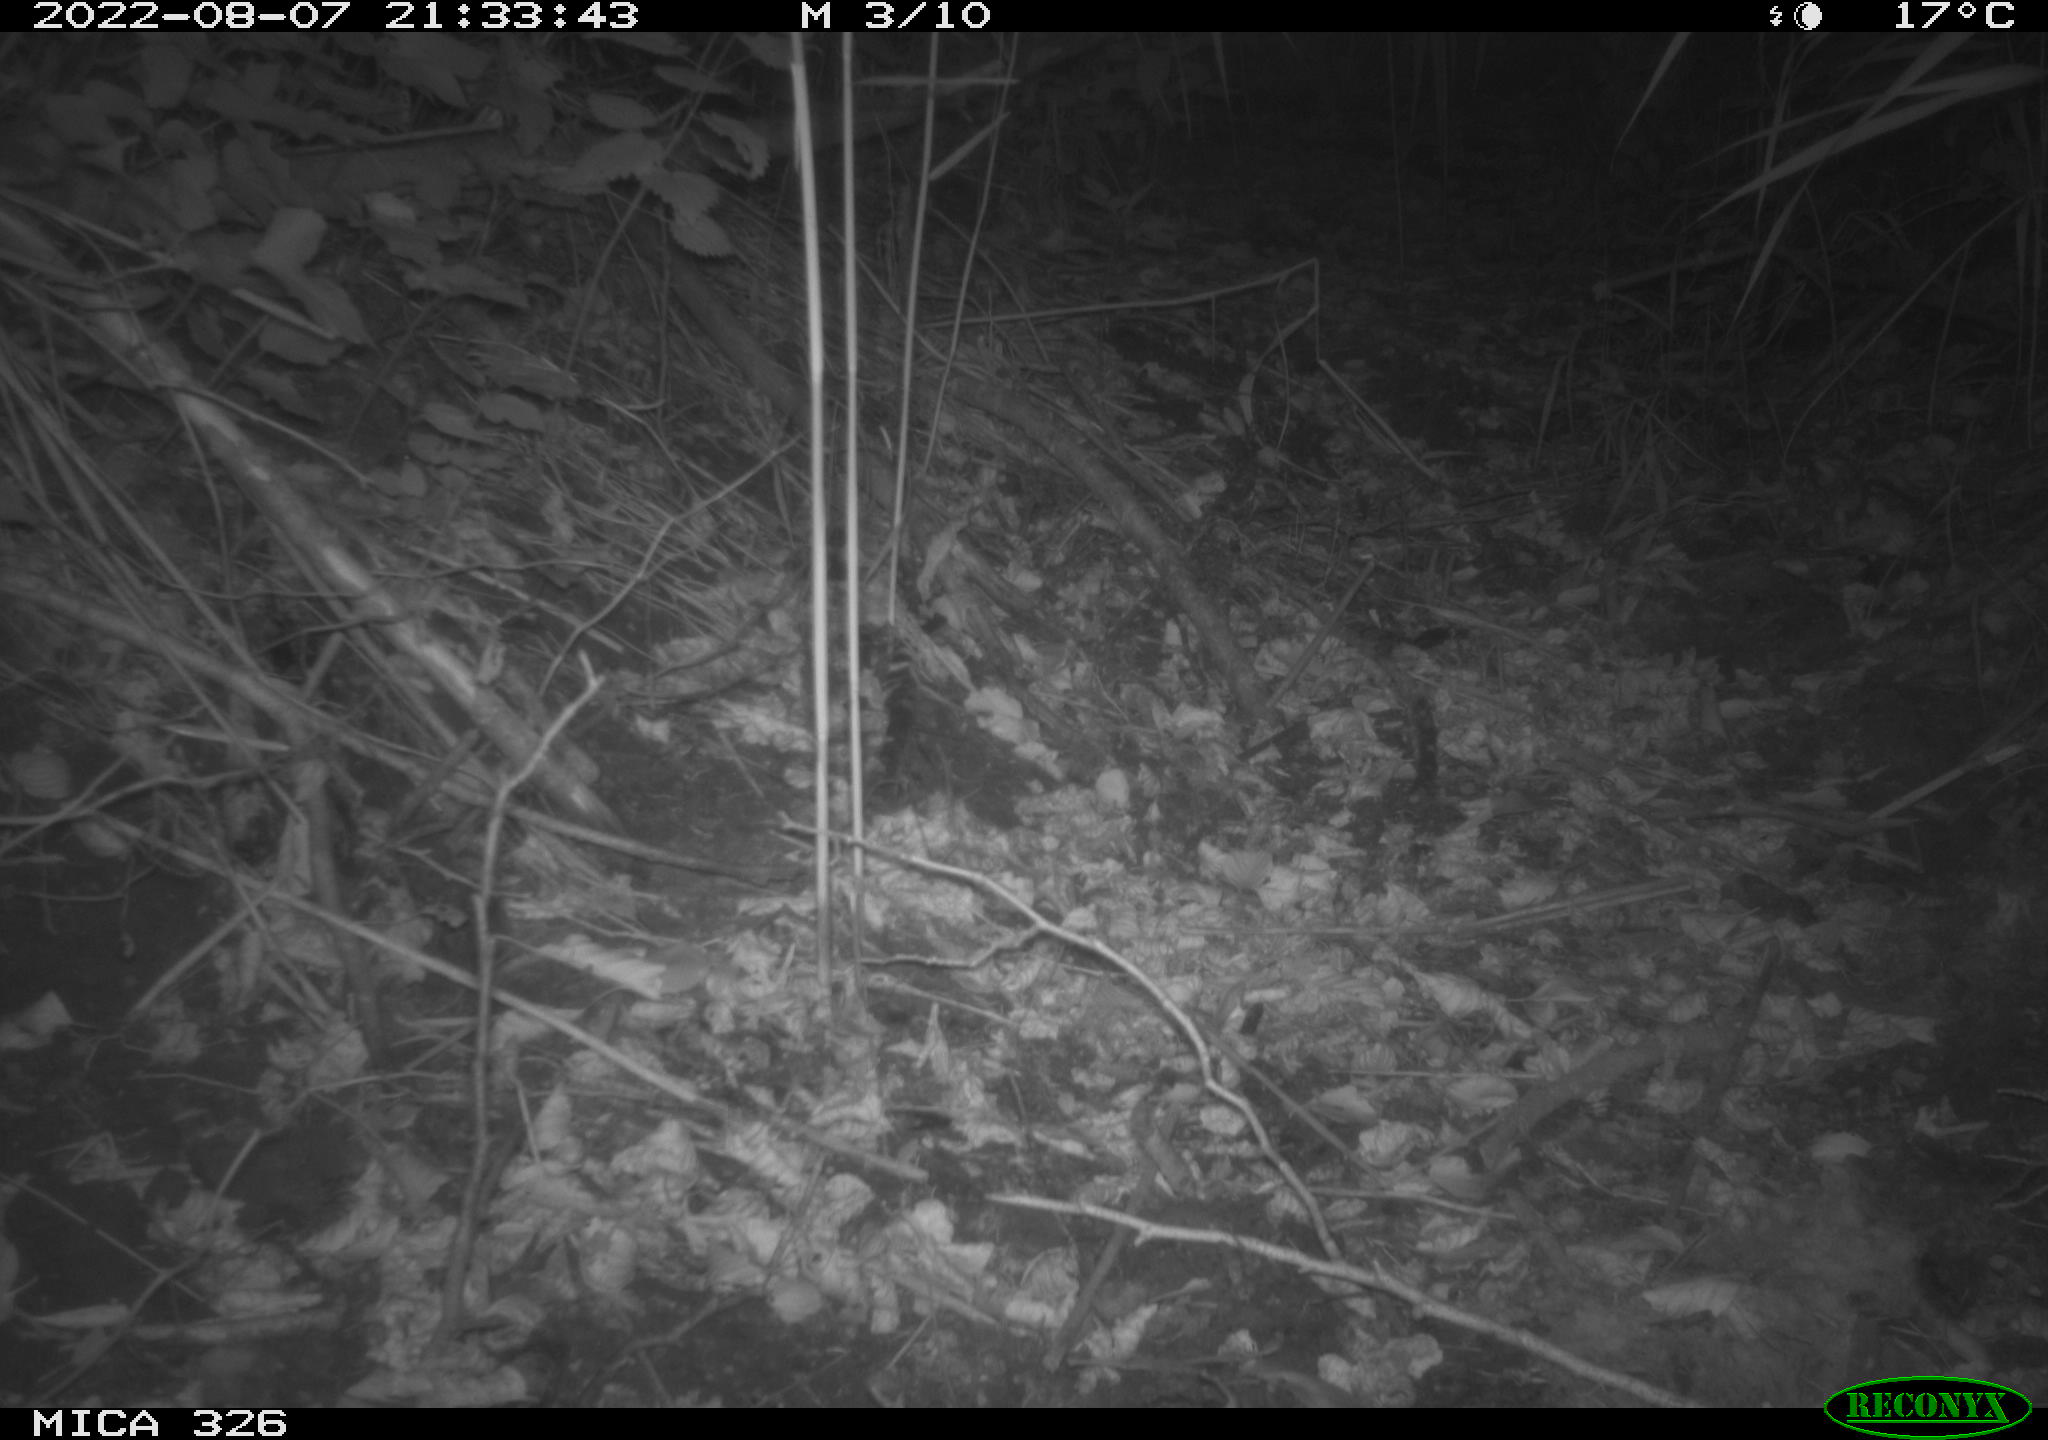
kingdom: Animalia
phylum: Chordata
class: Mammalia
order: Carnivora
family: Mustelidae
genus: Mustela
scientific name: Mustela putorius
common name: European polecat
